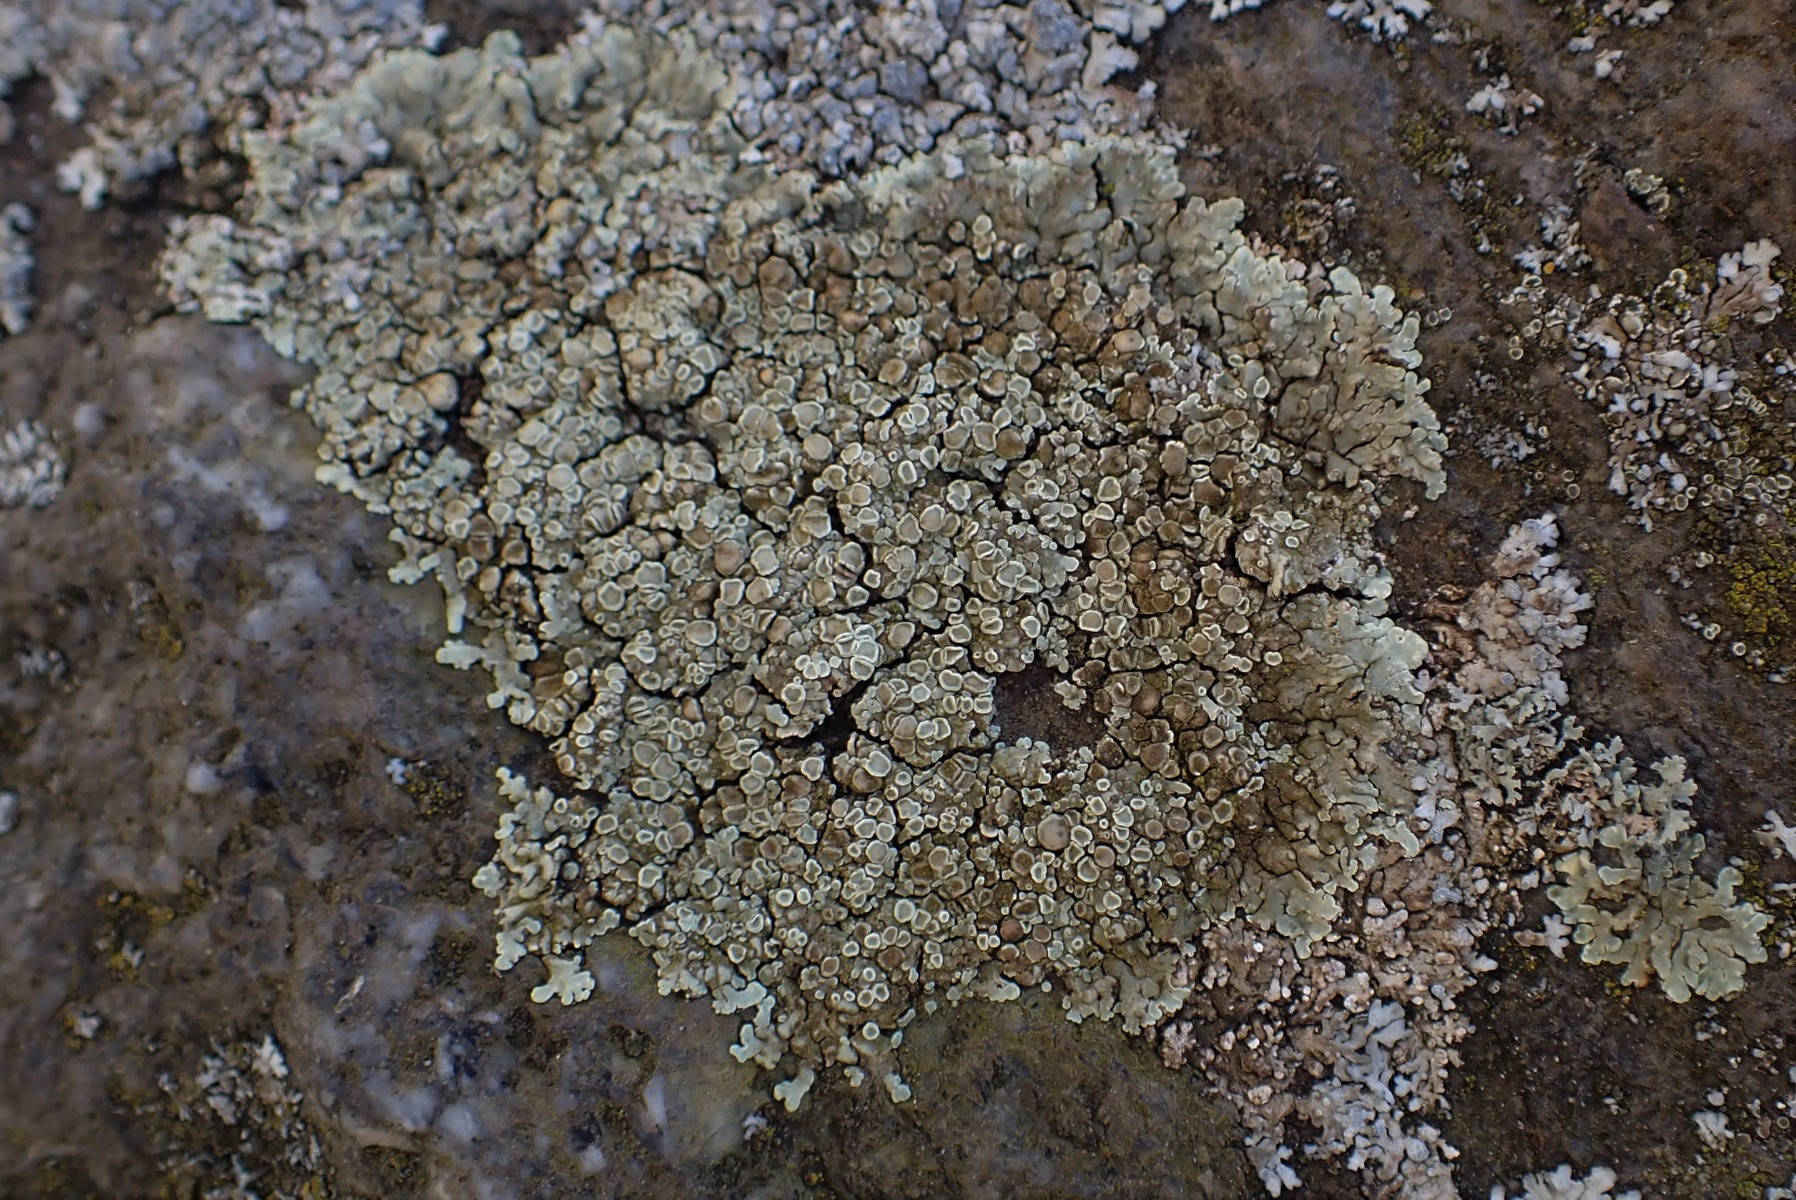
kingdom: Fungi
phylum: Ascomycota
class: Lecanoromycetes
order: Lecanorales
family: Lecanoraceae
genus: Protoparmeliopsis
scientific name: Protoparmeliopsis muralis
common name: randfliget kantskivelav
